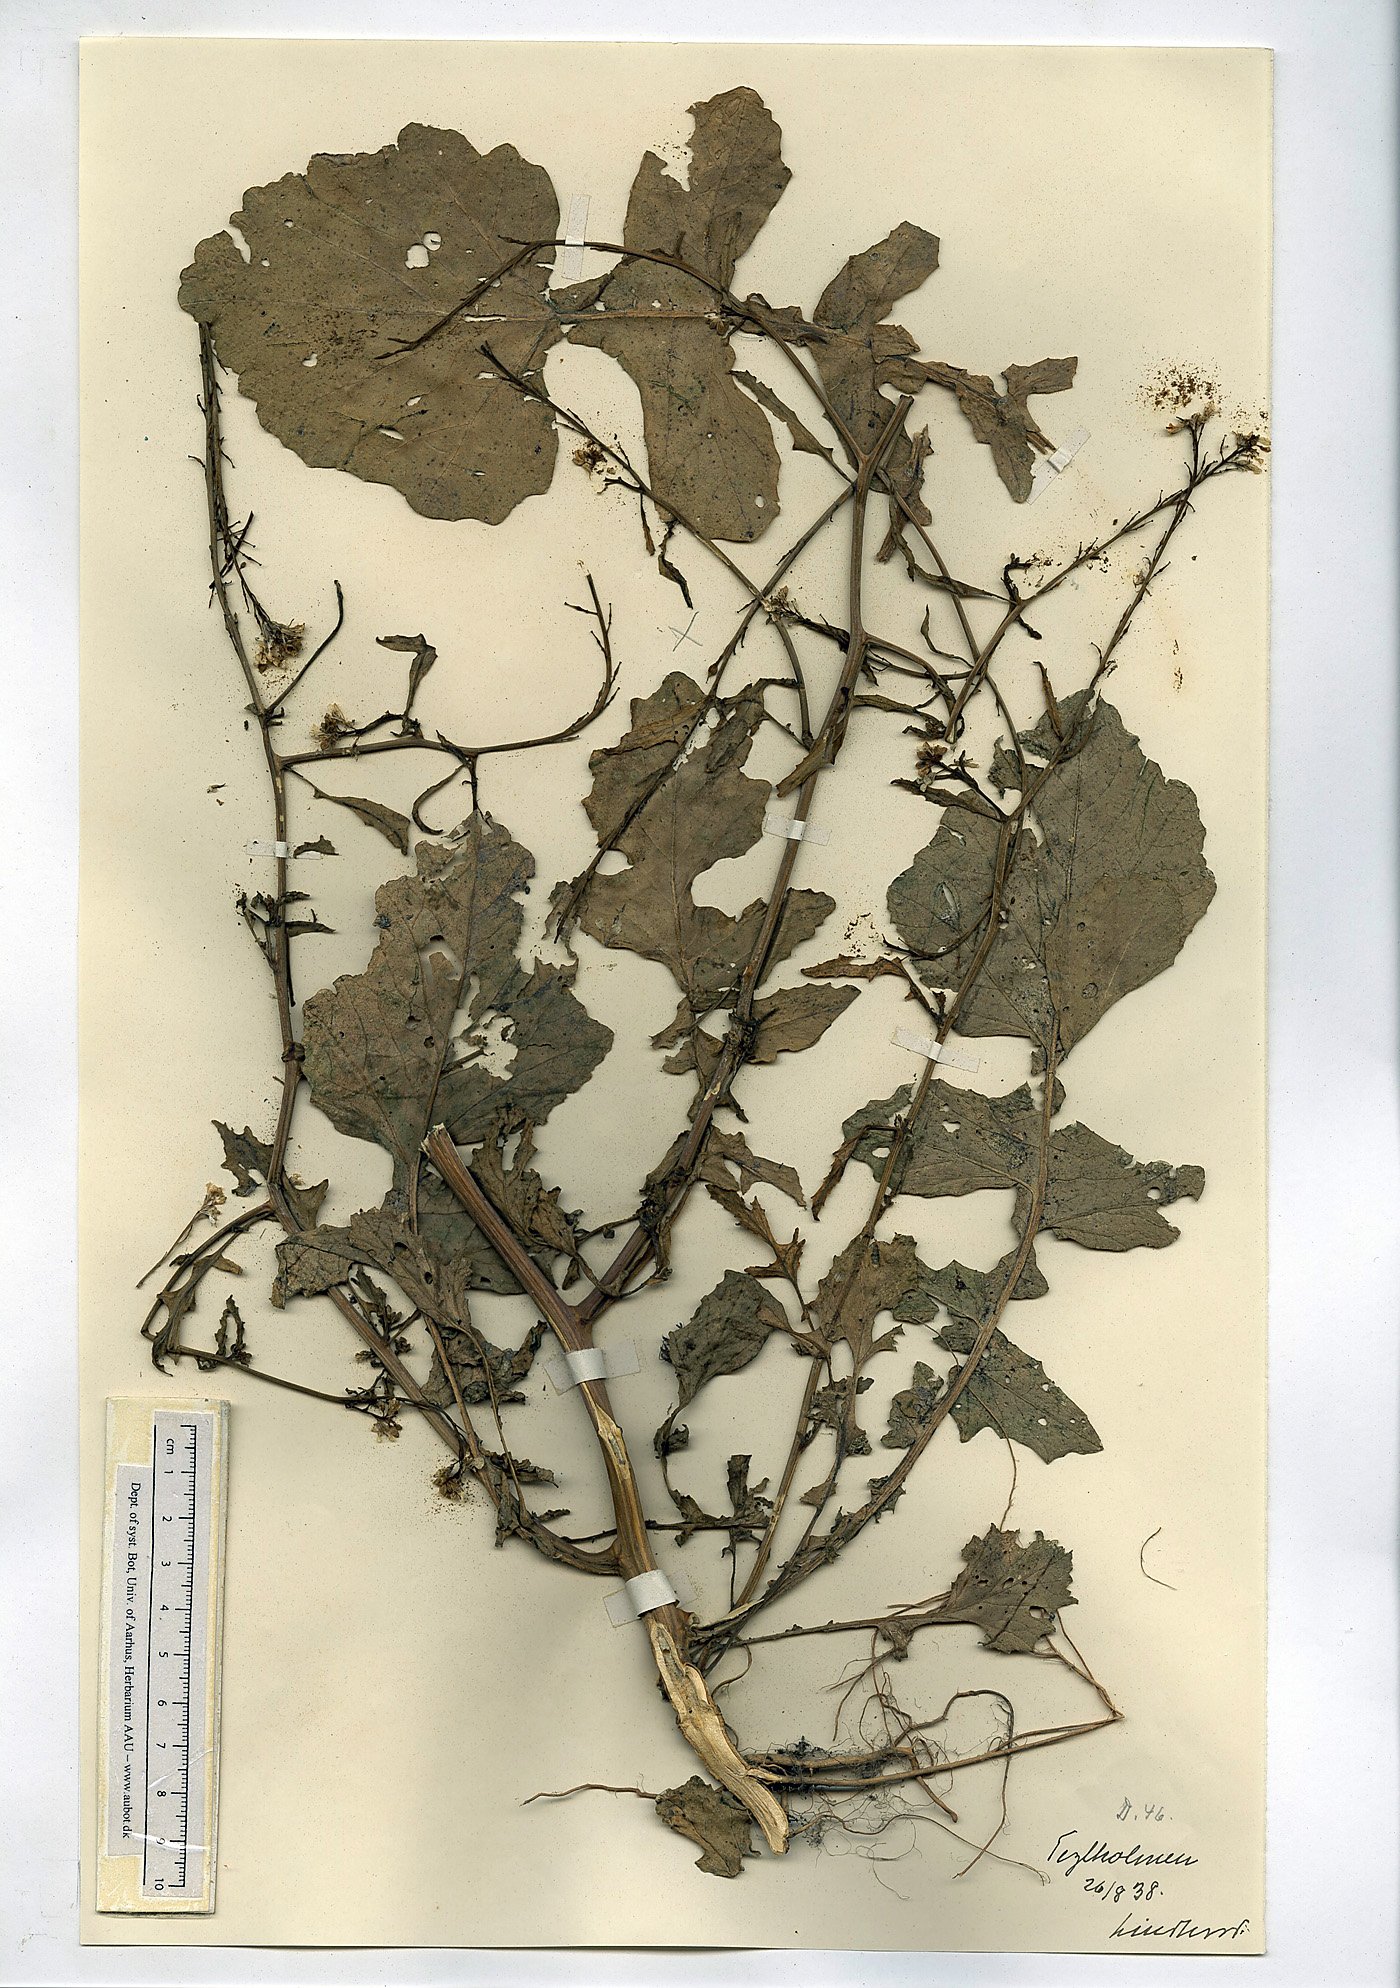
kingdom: Plantae
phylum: Tracheophyta
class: Magnoliopsida
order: Brassicales
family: Brassicaceae
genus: Rapistrum
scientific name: Rapistrum rugosum
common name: Annual bastardcabbage
